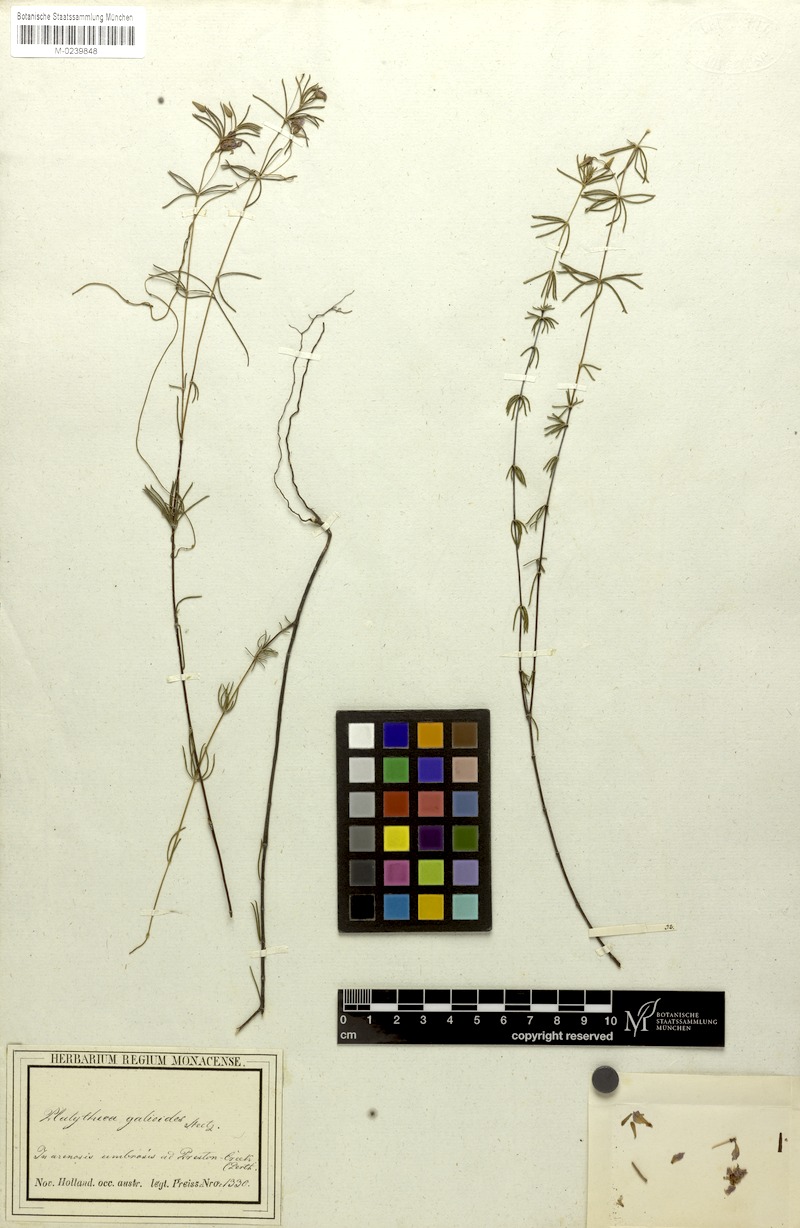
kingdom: Plantae
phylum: Tracheophyta
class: Magnoliopsida
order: Oxalidales
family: Elaeocarpaceae
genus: Platytheca
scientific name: Platytheca galioides
